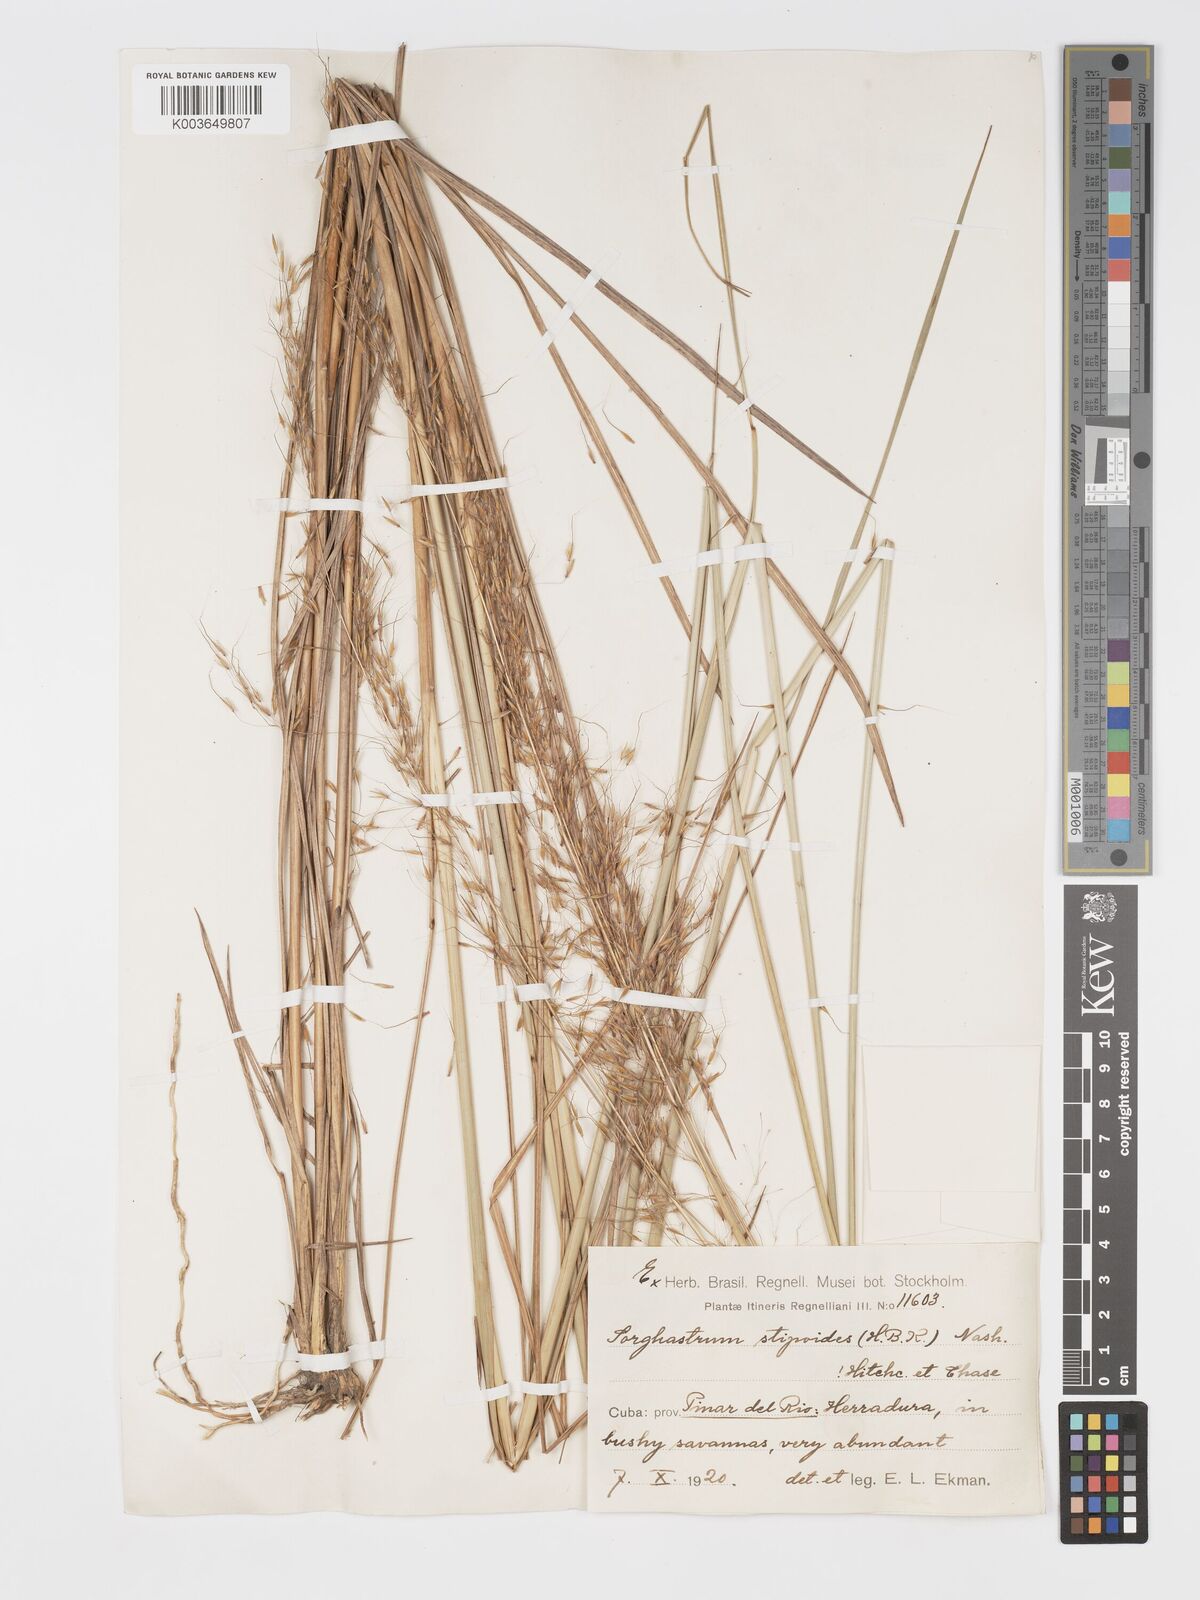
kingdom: Plantae
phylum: Tracheophyta
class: Liliopsida
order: Poales
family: Poaceae
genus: Sorghastrum
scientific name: Sorghastrum stipoides
